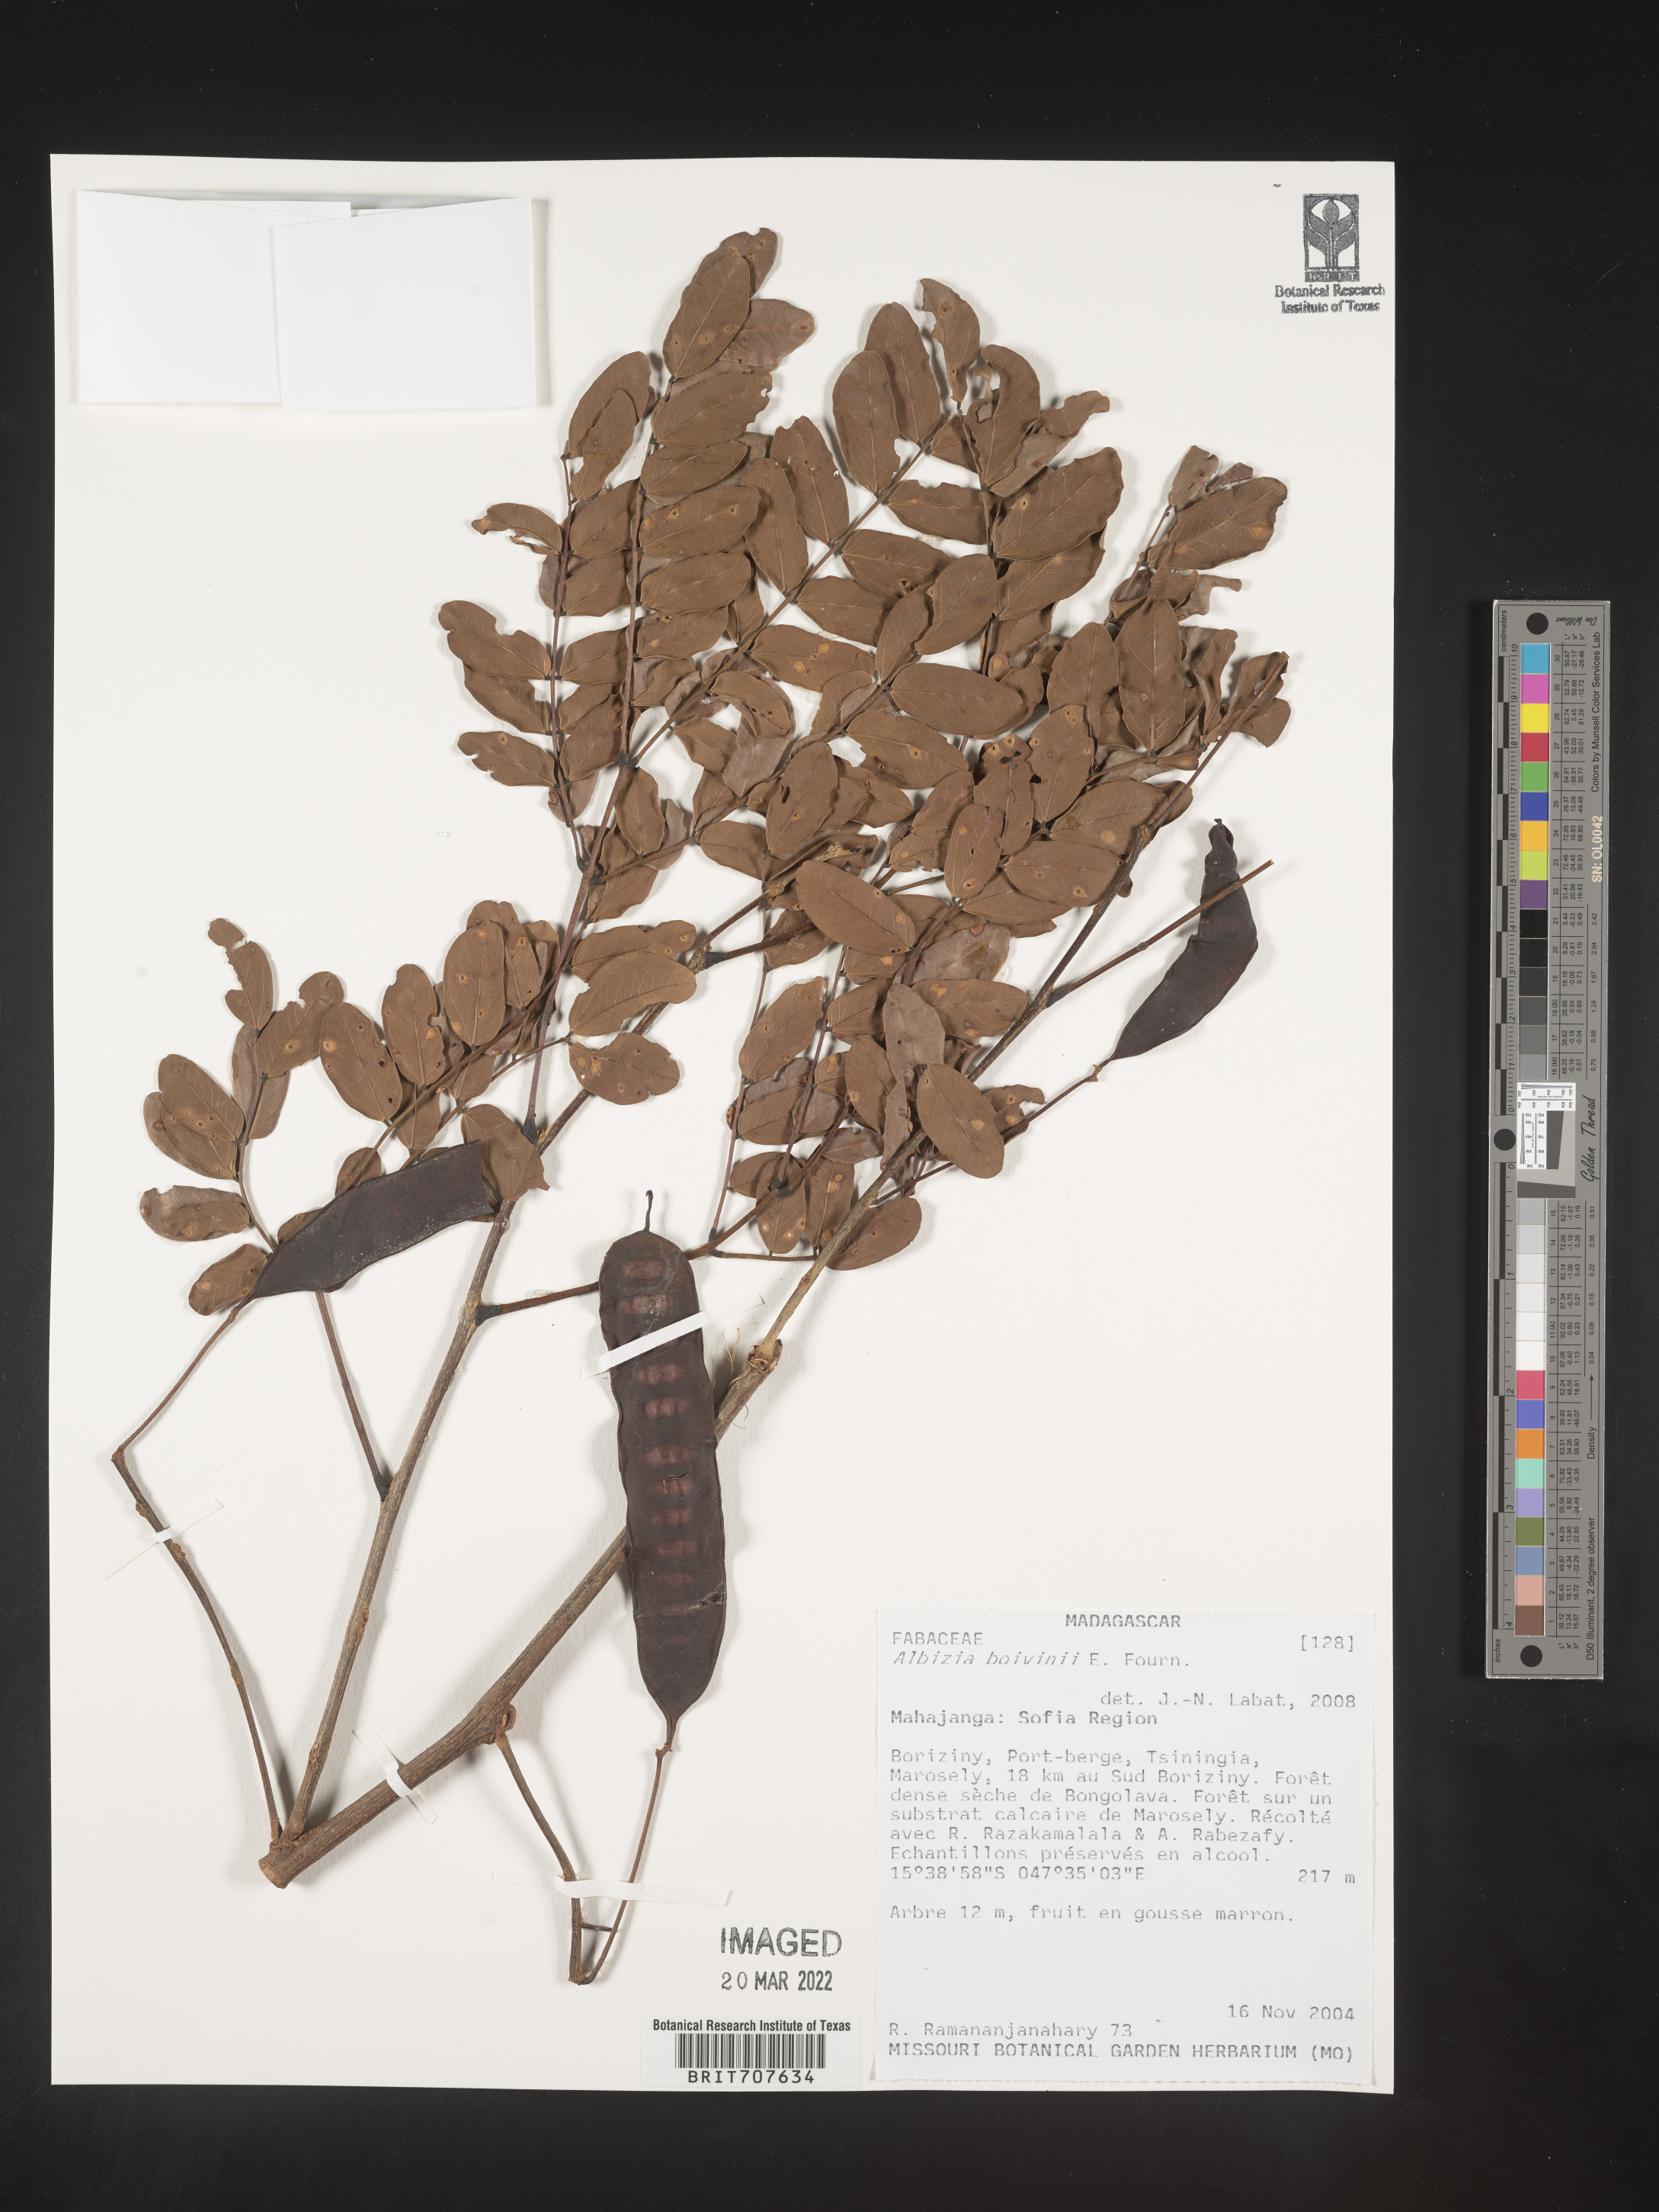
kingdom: Plantae
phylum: Tracheophyta
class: Magnoliopsida
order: Fabales
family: Fabaceae
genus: Albizia
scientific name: Albizia
